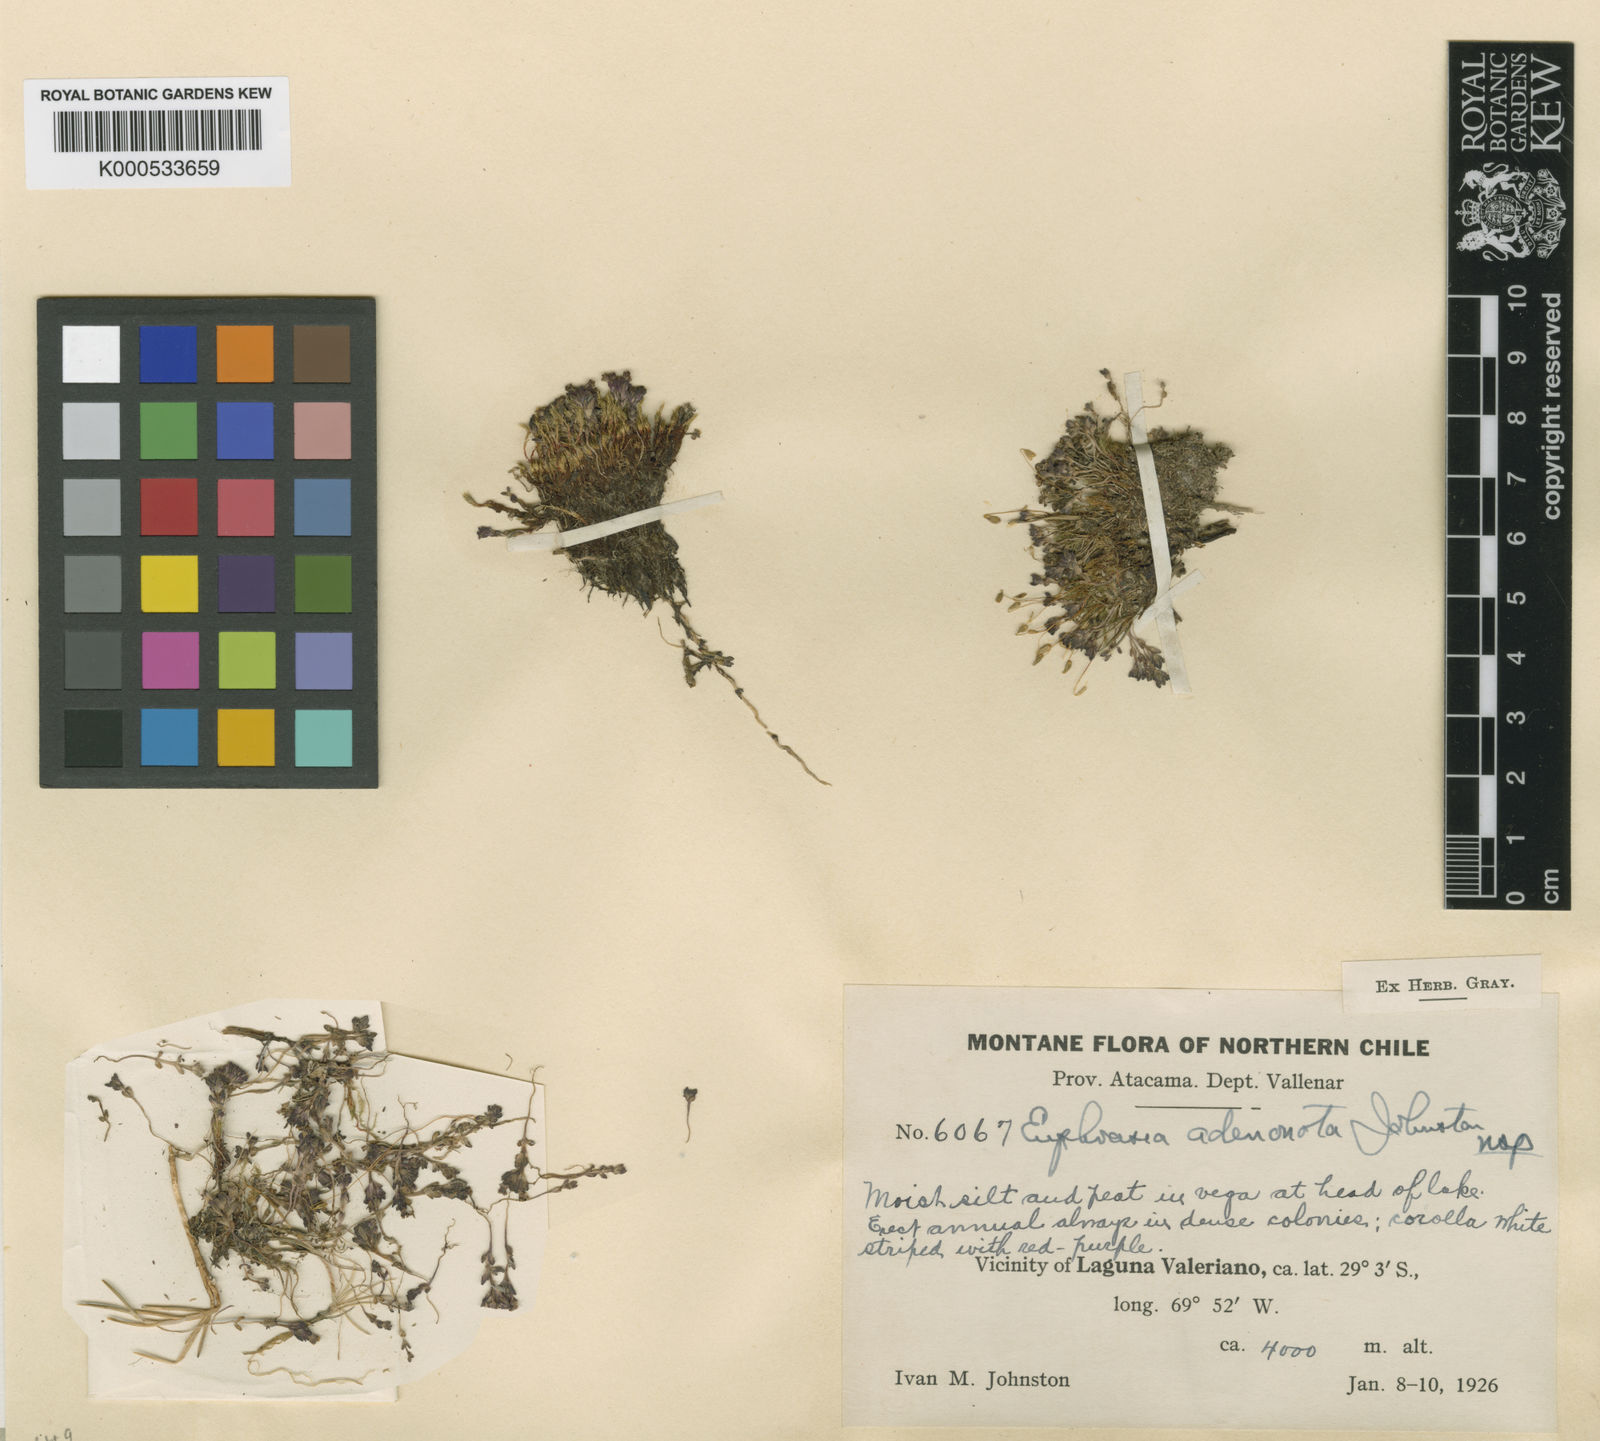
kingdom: Plantae
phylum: Tracheophyta
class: Magnoliopsida
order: Lamiales
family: Orobanchaceae
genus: Euphrasia
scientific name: Euphrasia adenonota
